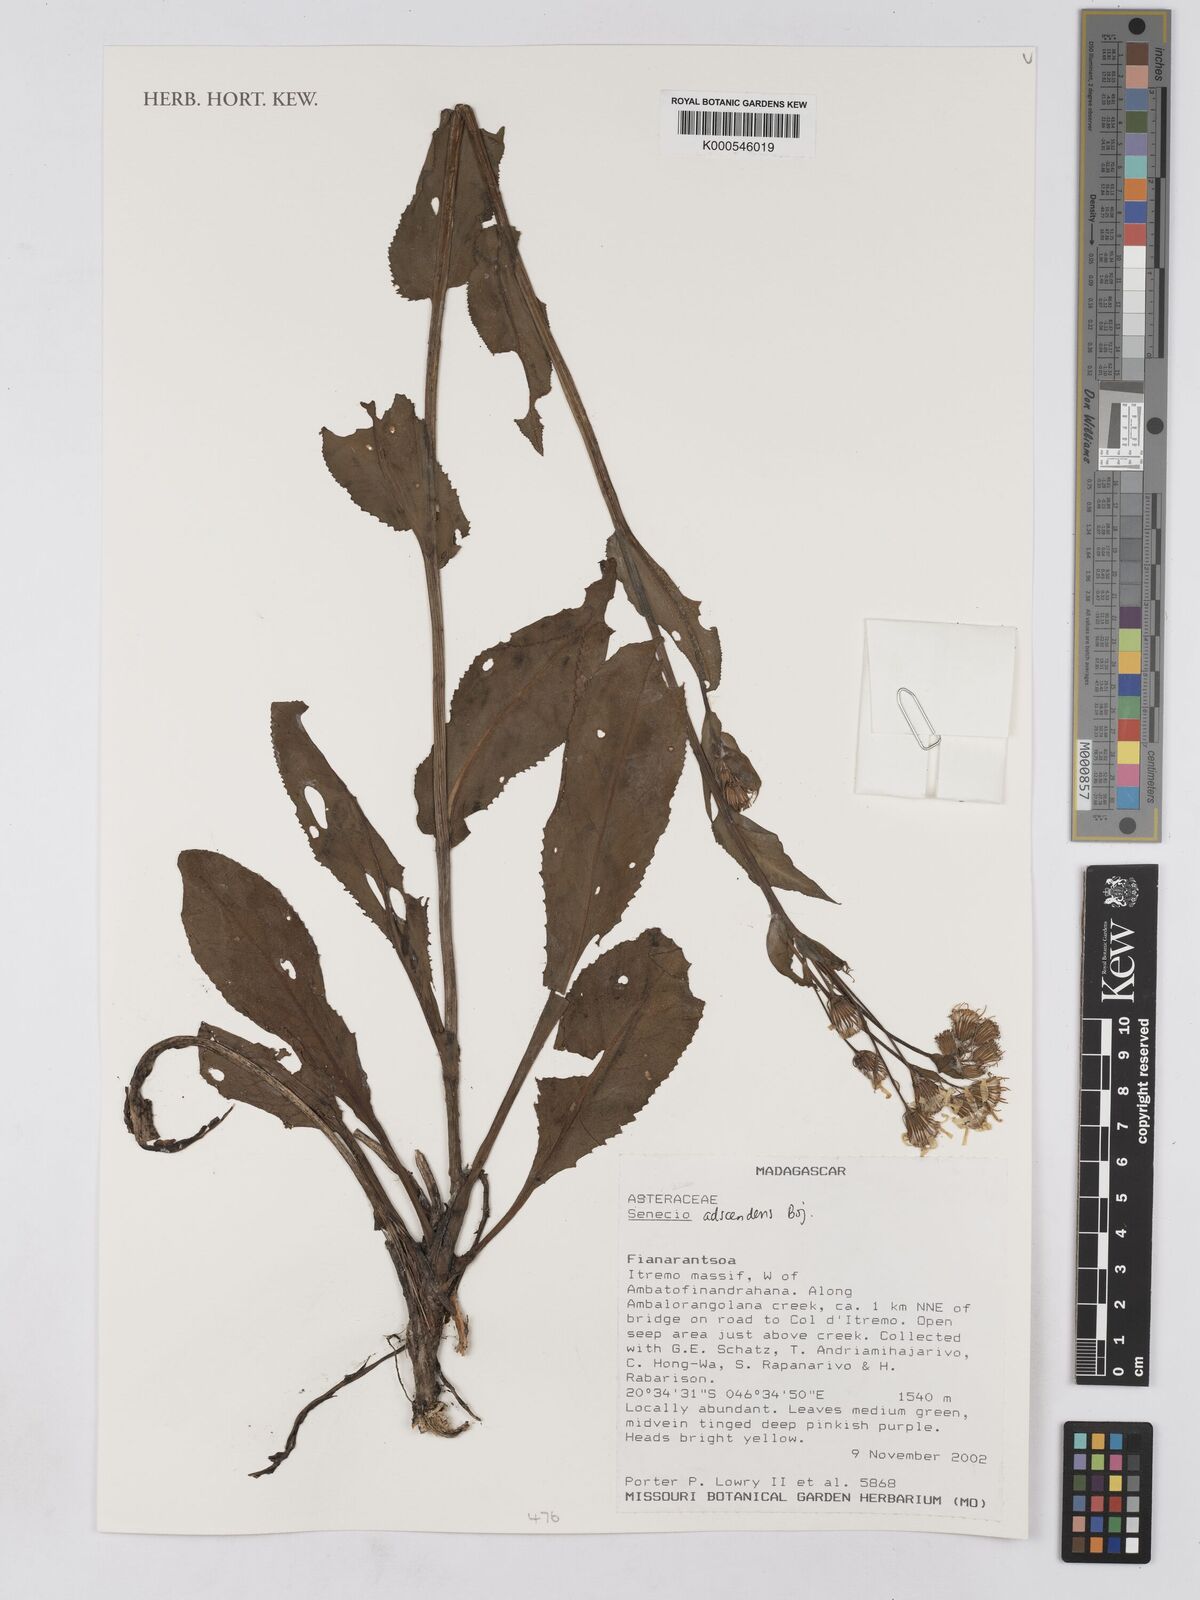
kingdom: Plantae
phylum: Tracheophyta
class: Magnoliopsida
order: Asterales
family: Asteraceae
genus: Senecio
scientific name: Senecio adscendens
